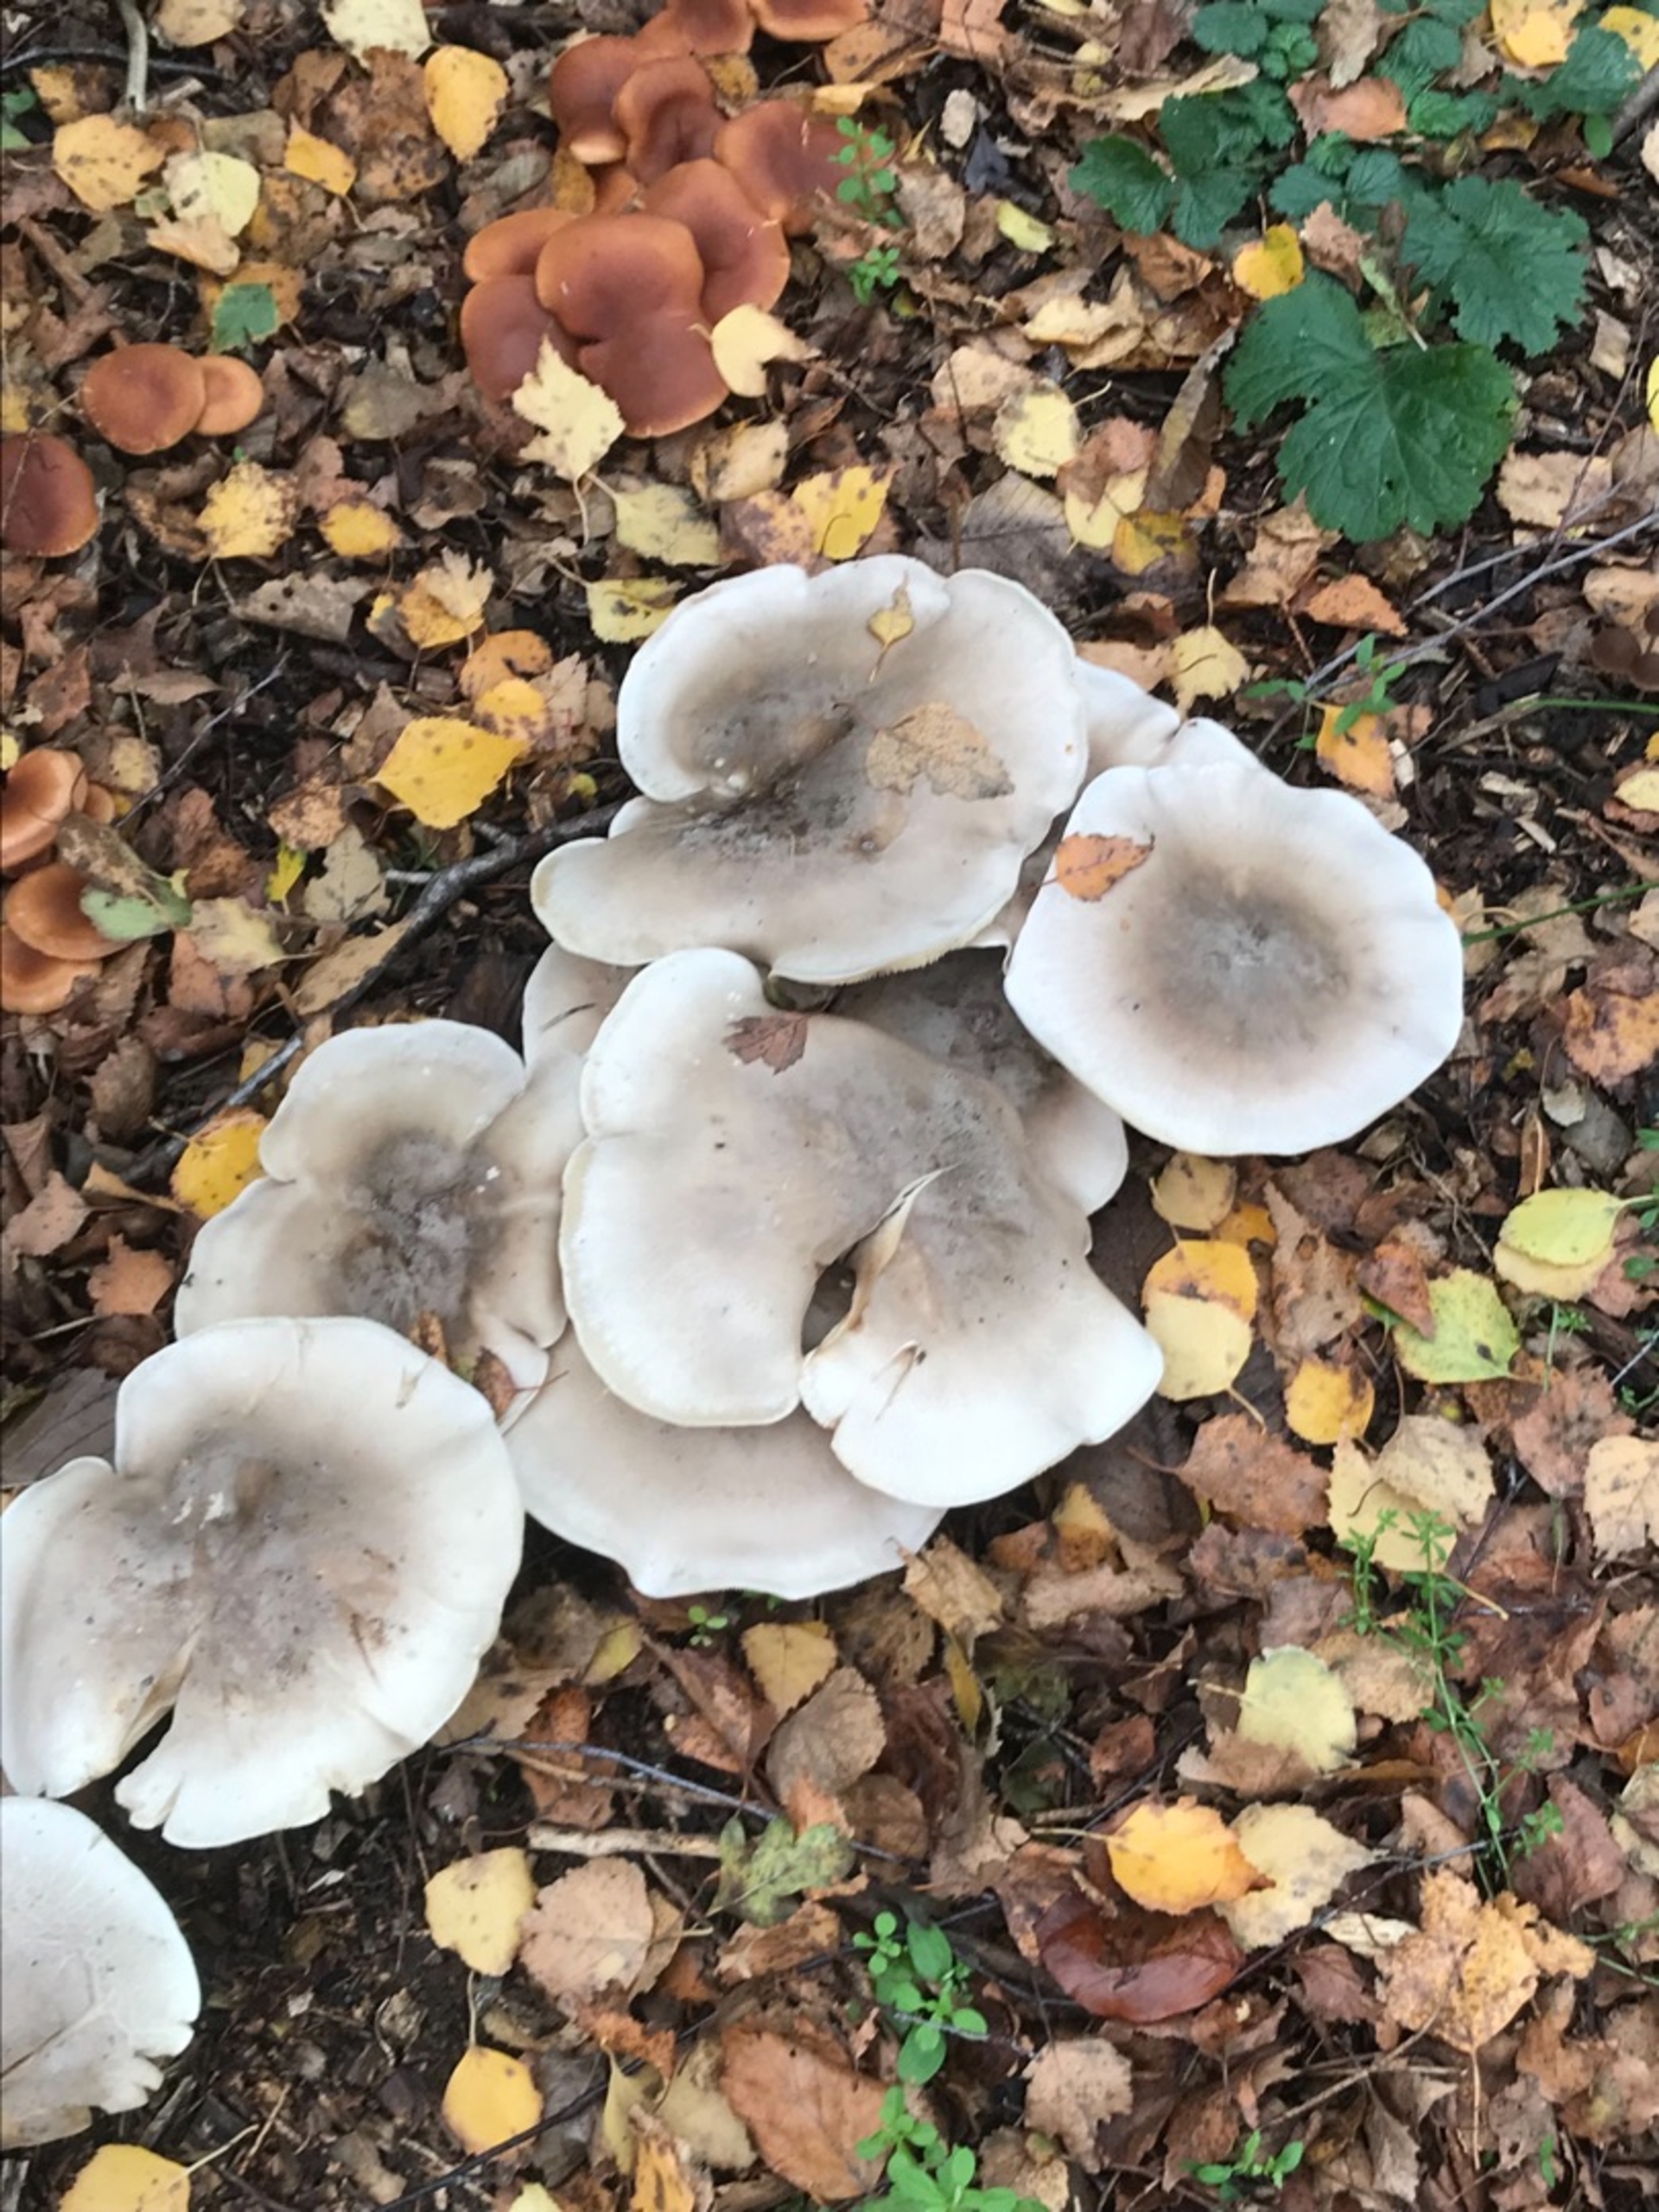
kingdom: Fungi
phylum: Basidiomycota
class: Agaricomycetes
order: Agaricales
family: Tricholomataceae
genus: Clitocybe
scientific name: Clitocybe nebularis
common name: Tåge-tragthat
